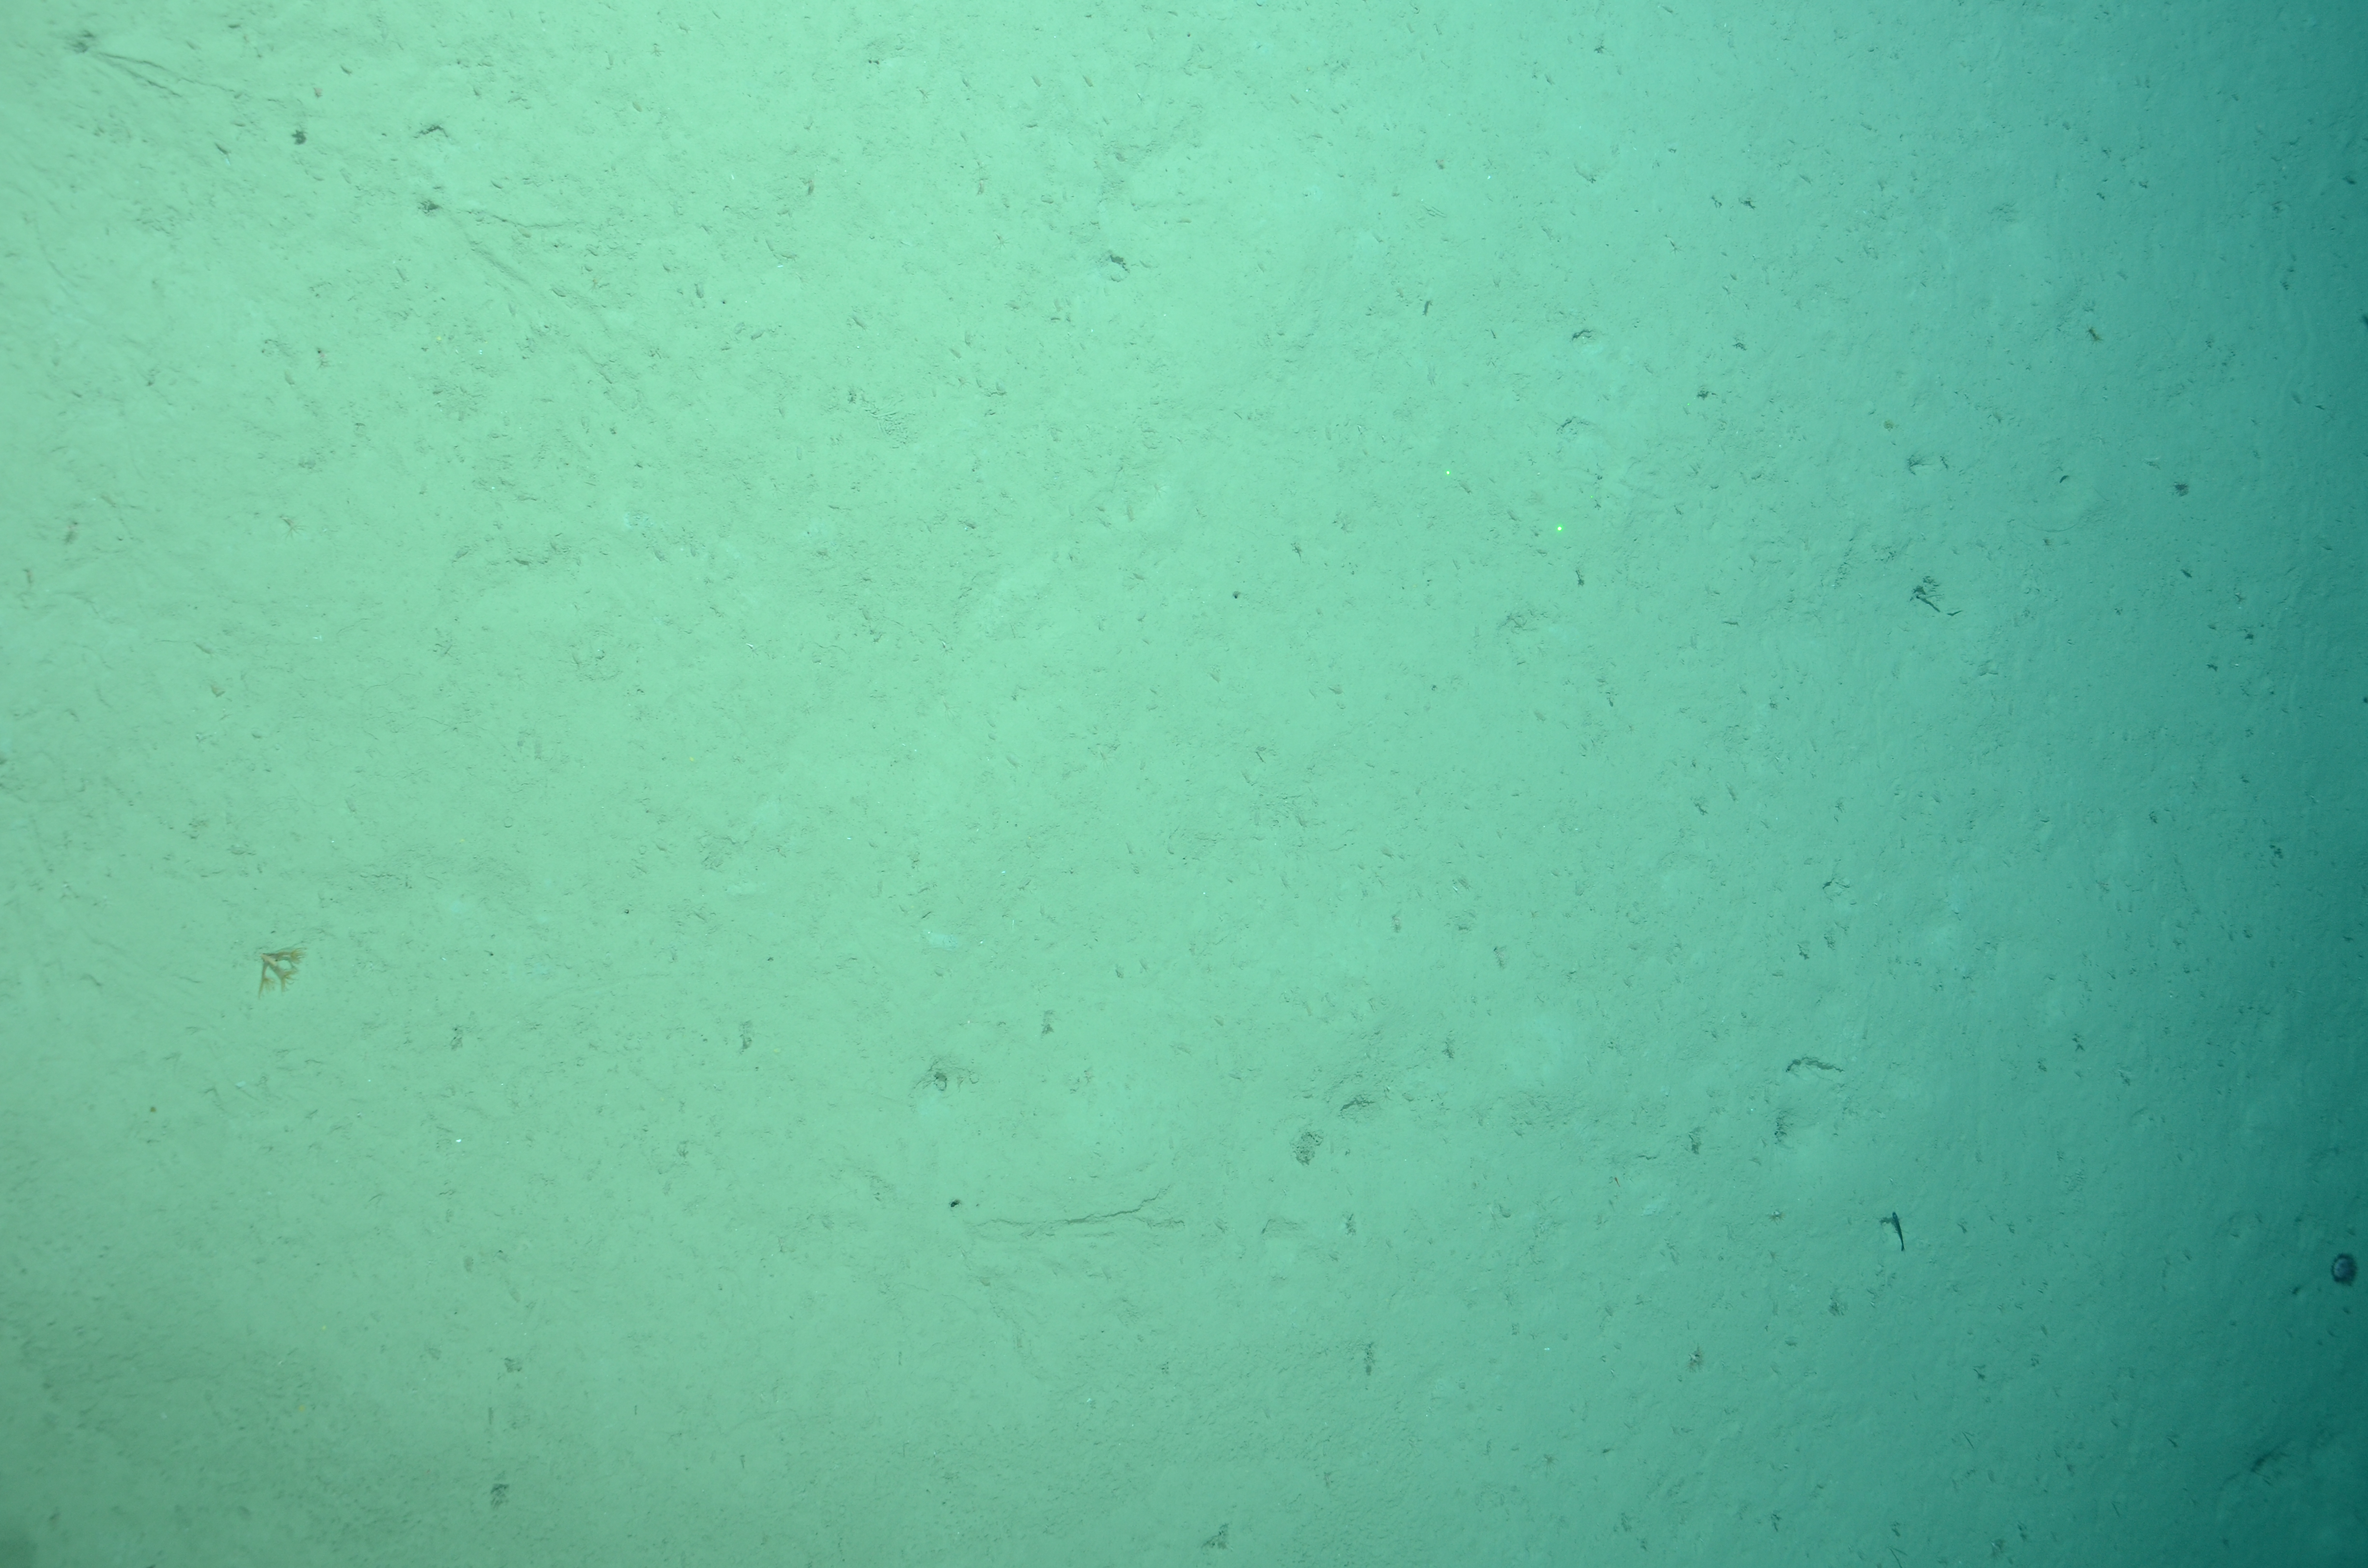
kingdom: Animalia
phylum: Cnidaria
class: Anthozoa
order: Scleralcyonacea
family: Kophobelemnidae
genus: Kophobelemnon
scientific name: Kophobelemnon
